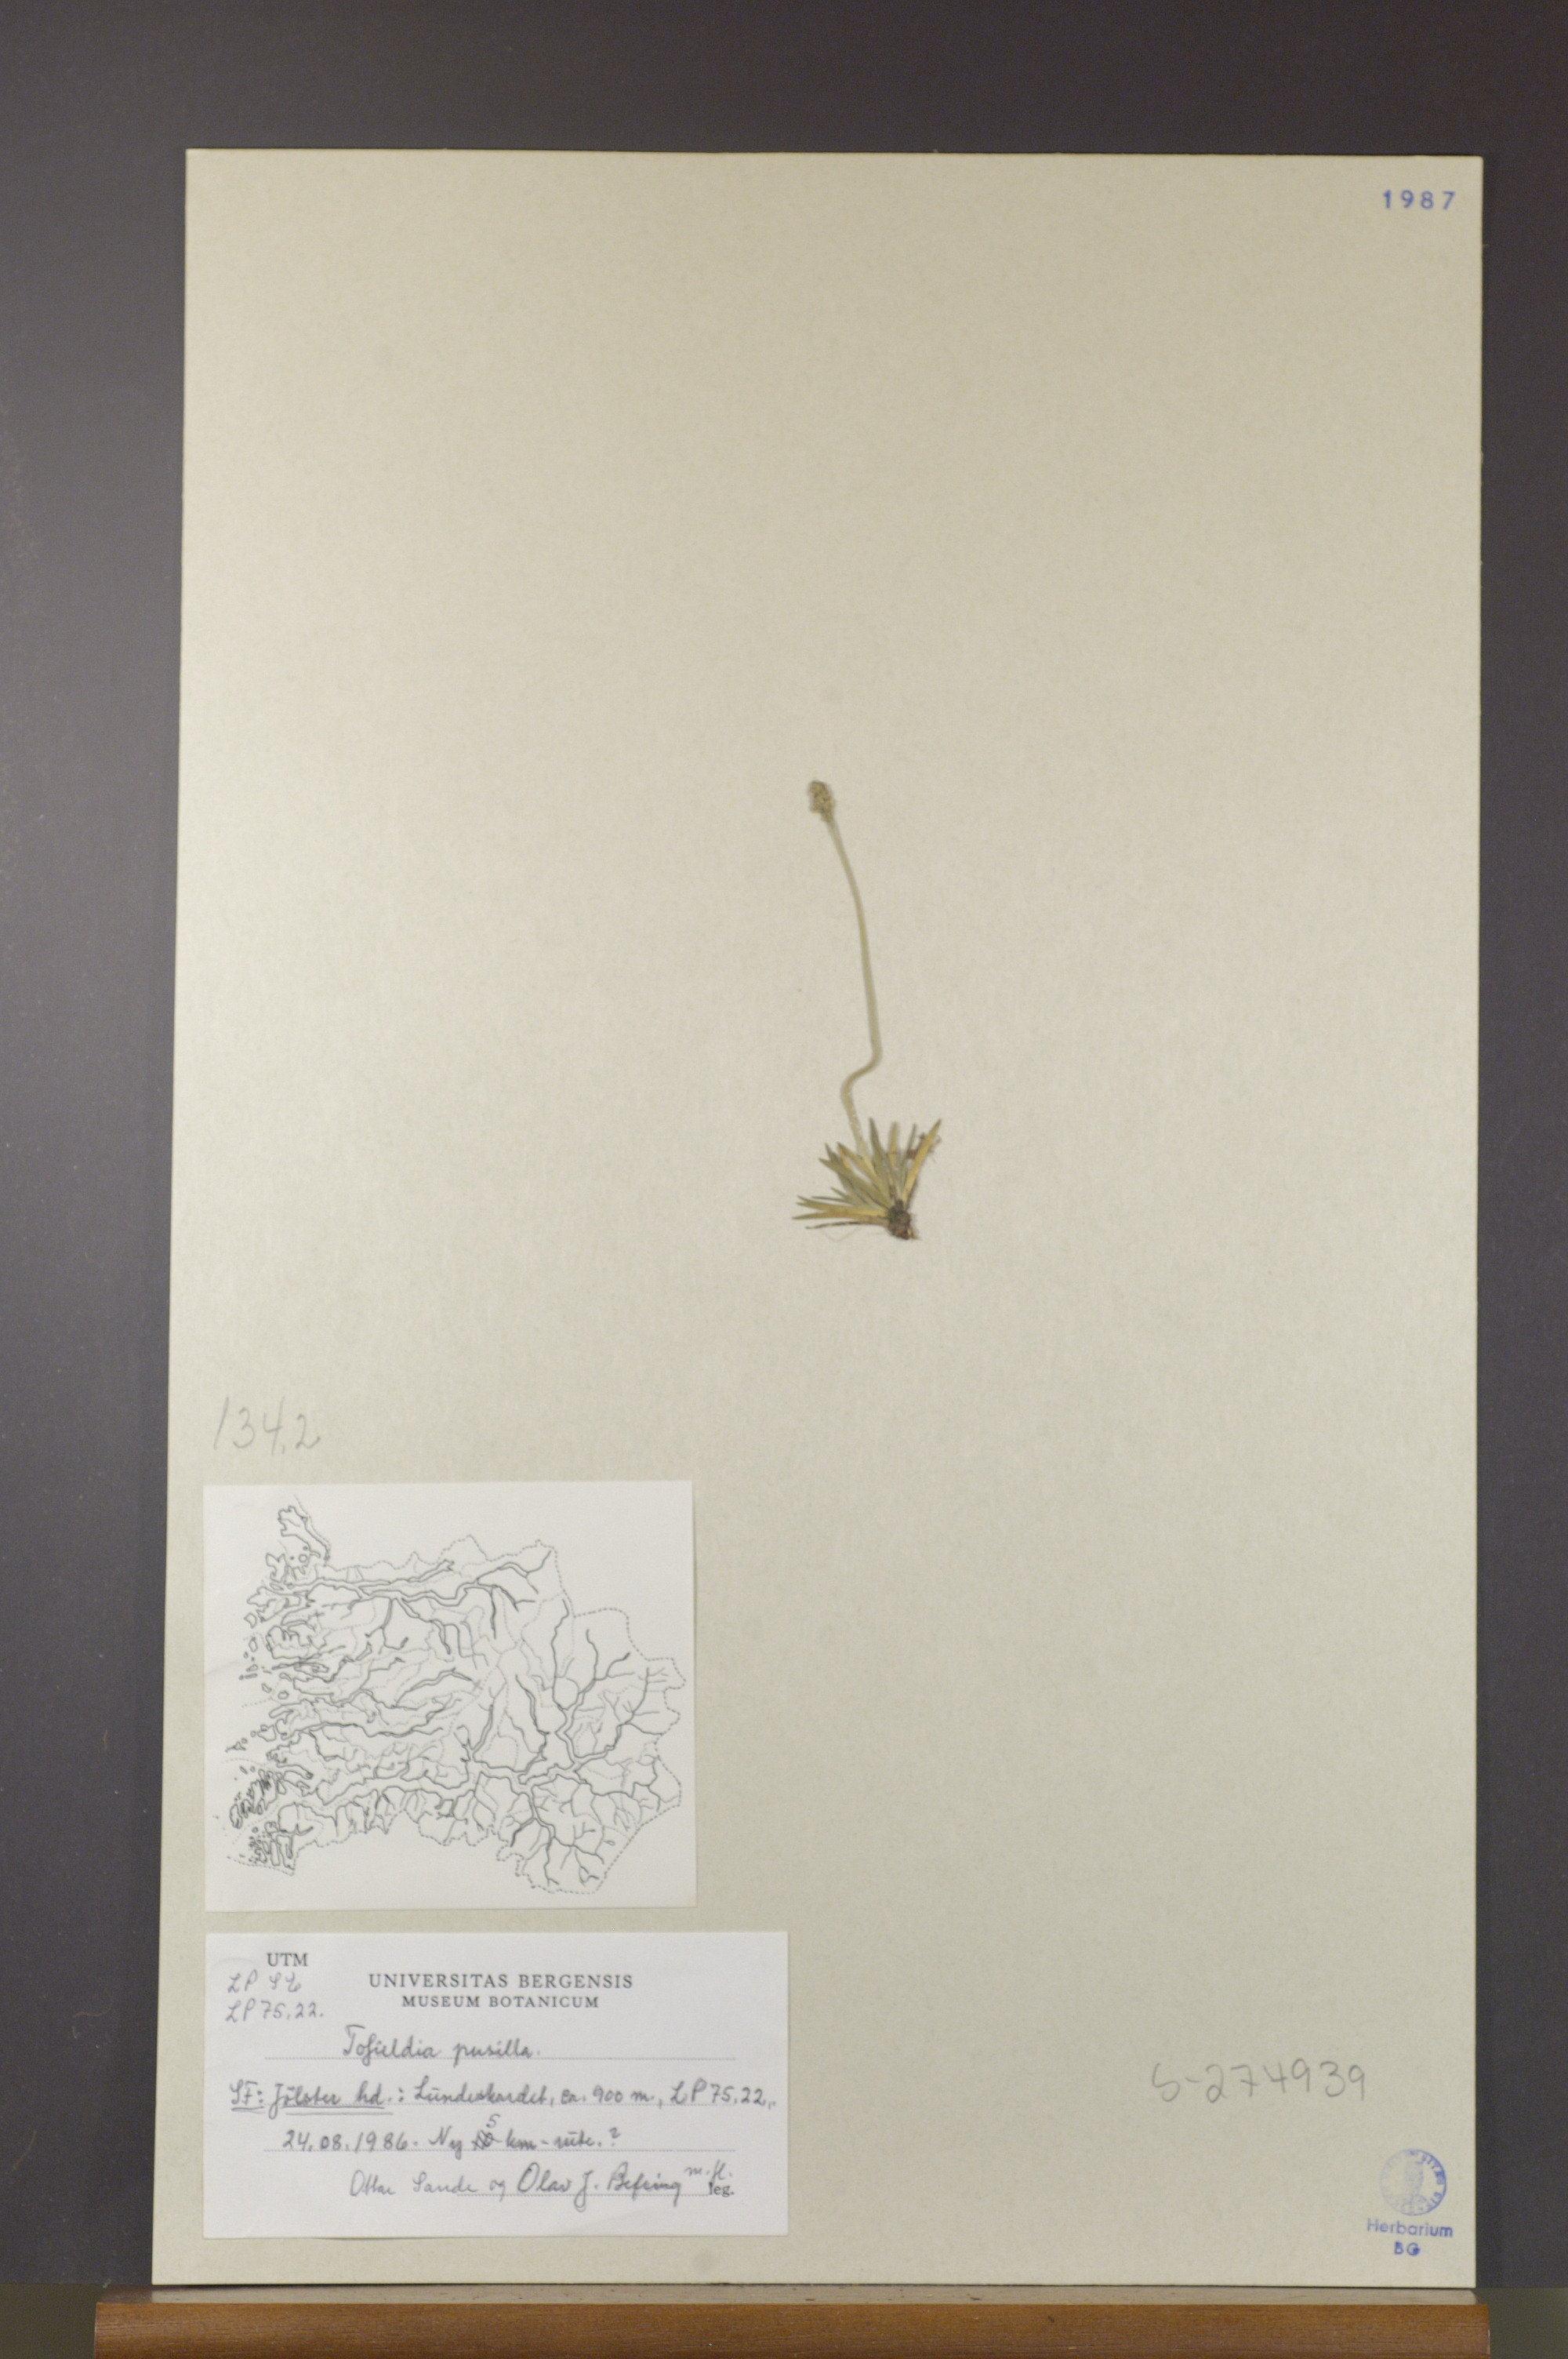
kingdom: Plantae
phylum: Tracheophyta
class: Liliopsida
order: Alismatales
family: Tofieldiaceae
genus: Tofieldia
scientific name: Tofieldia pusilla
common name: Scottish false asphodel
